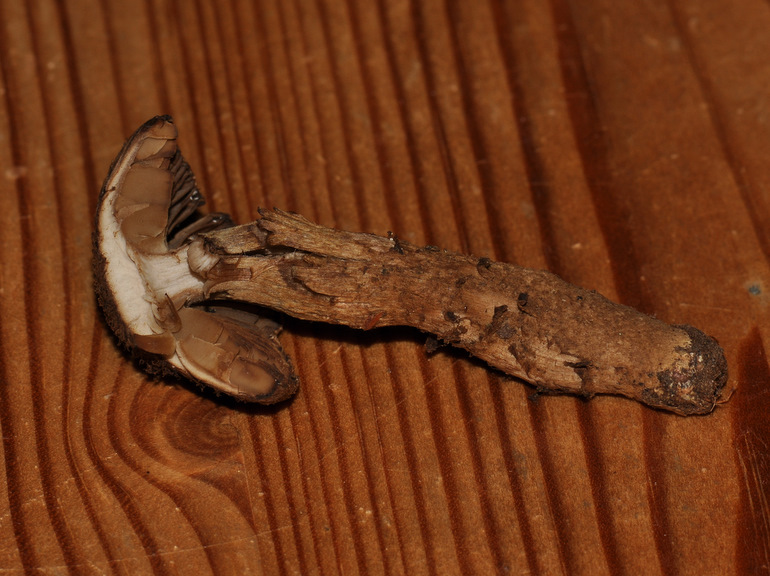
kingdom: Fungi
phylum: Basidiomycota
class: Agaricomycetes
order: Agaricales
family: Inocybaceae
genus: Inocybe
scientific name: Inocybe stellatospora
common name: spidsskællet trævlhat
